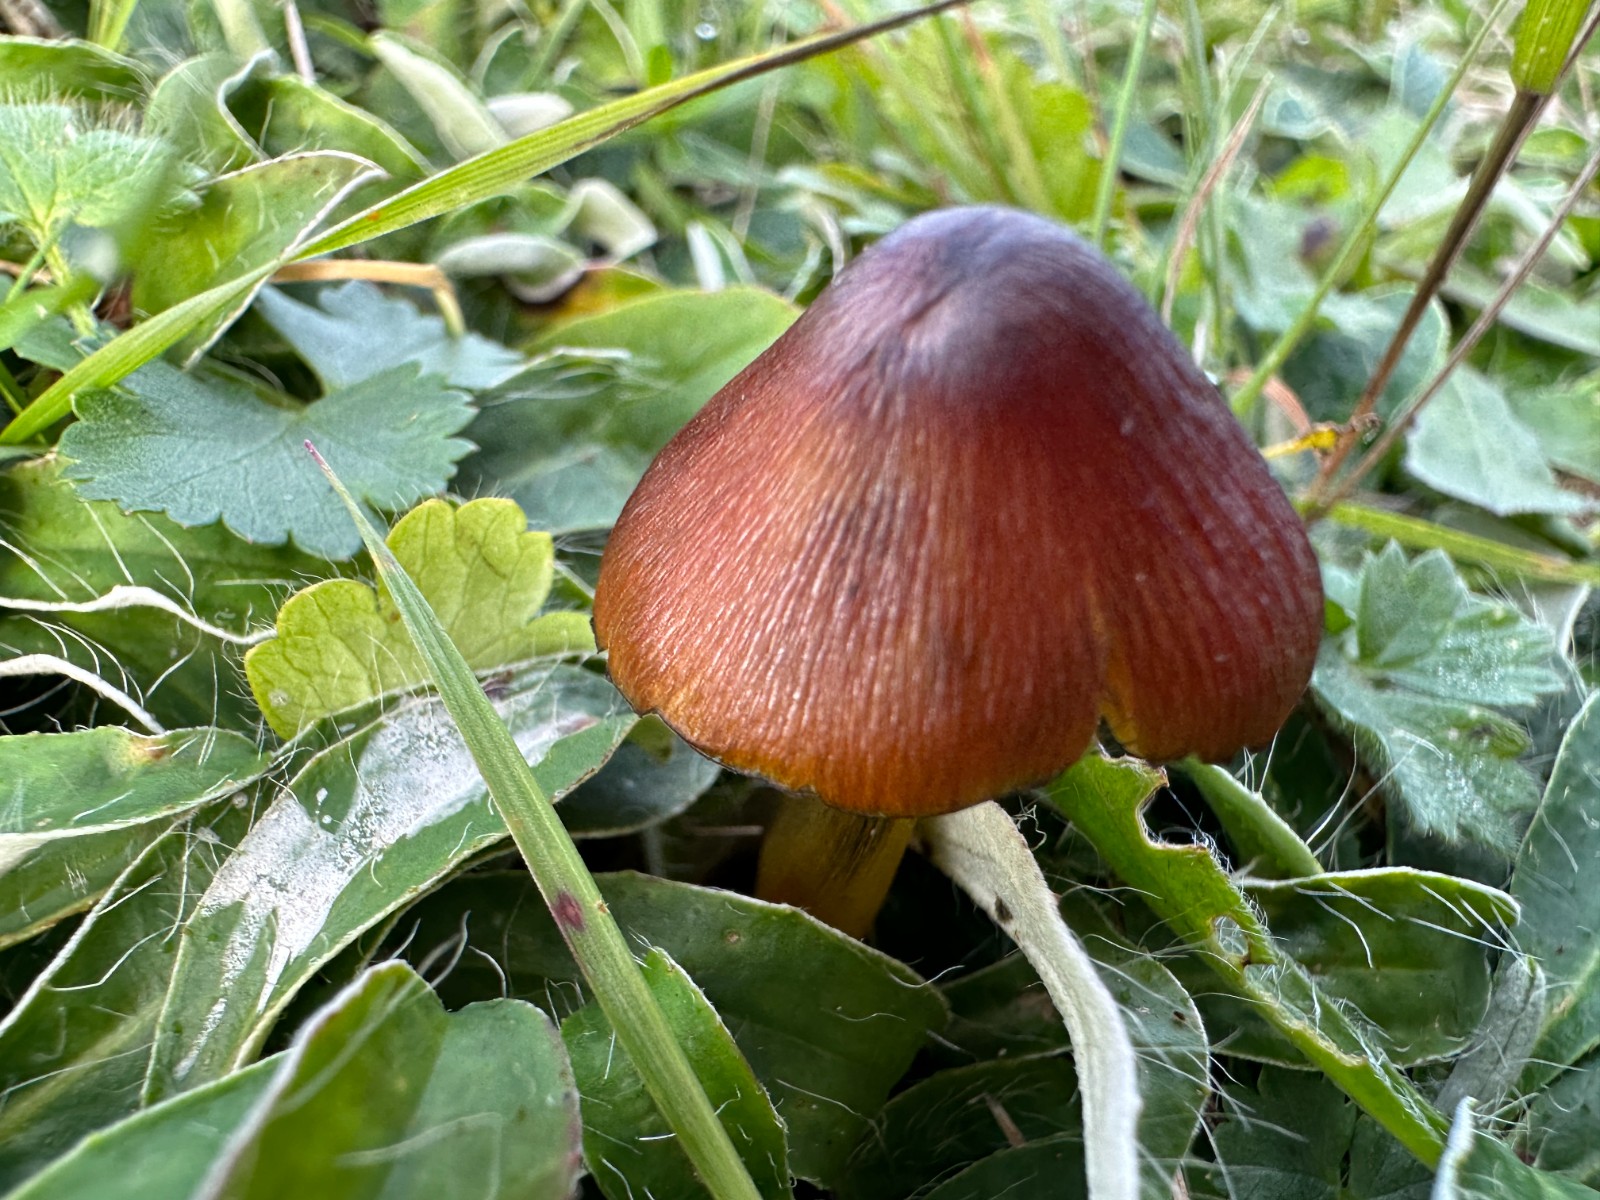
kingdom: Fungi
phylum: Basidiomycota
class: Agaricomycetes
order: Agaricales
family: Hygrophoraceae
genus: Hygrocybe
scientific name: Hygrocybe conica
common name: kegle-vokshat
